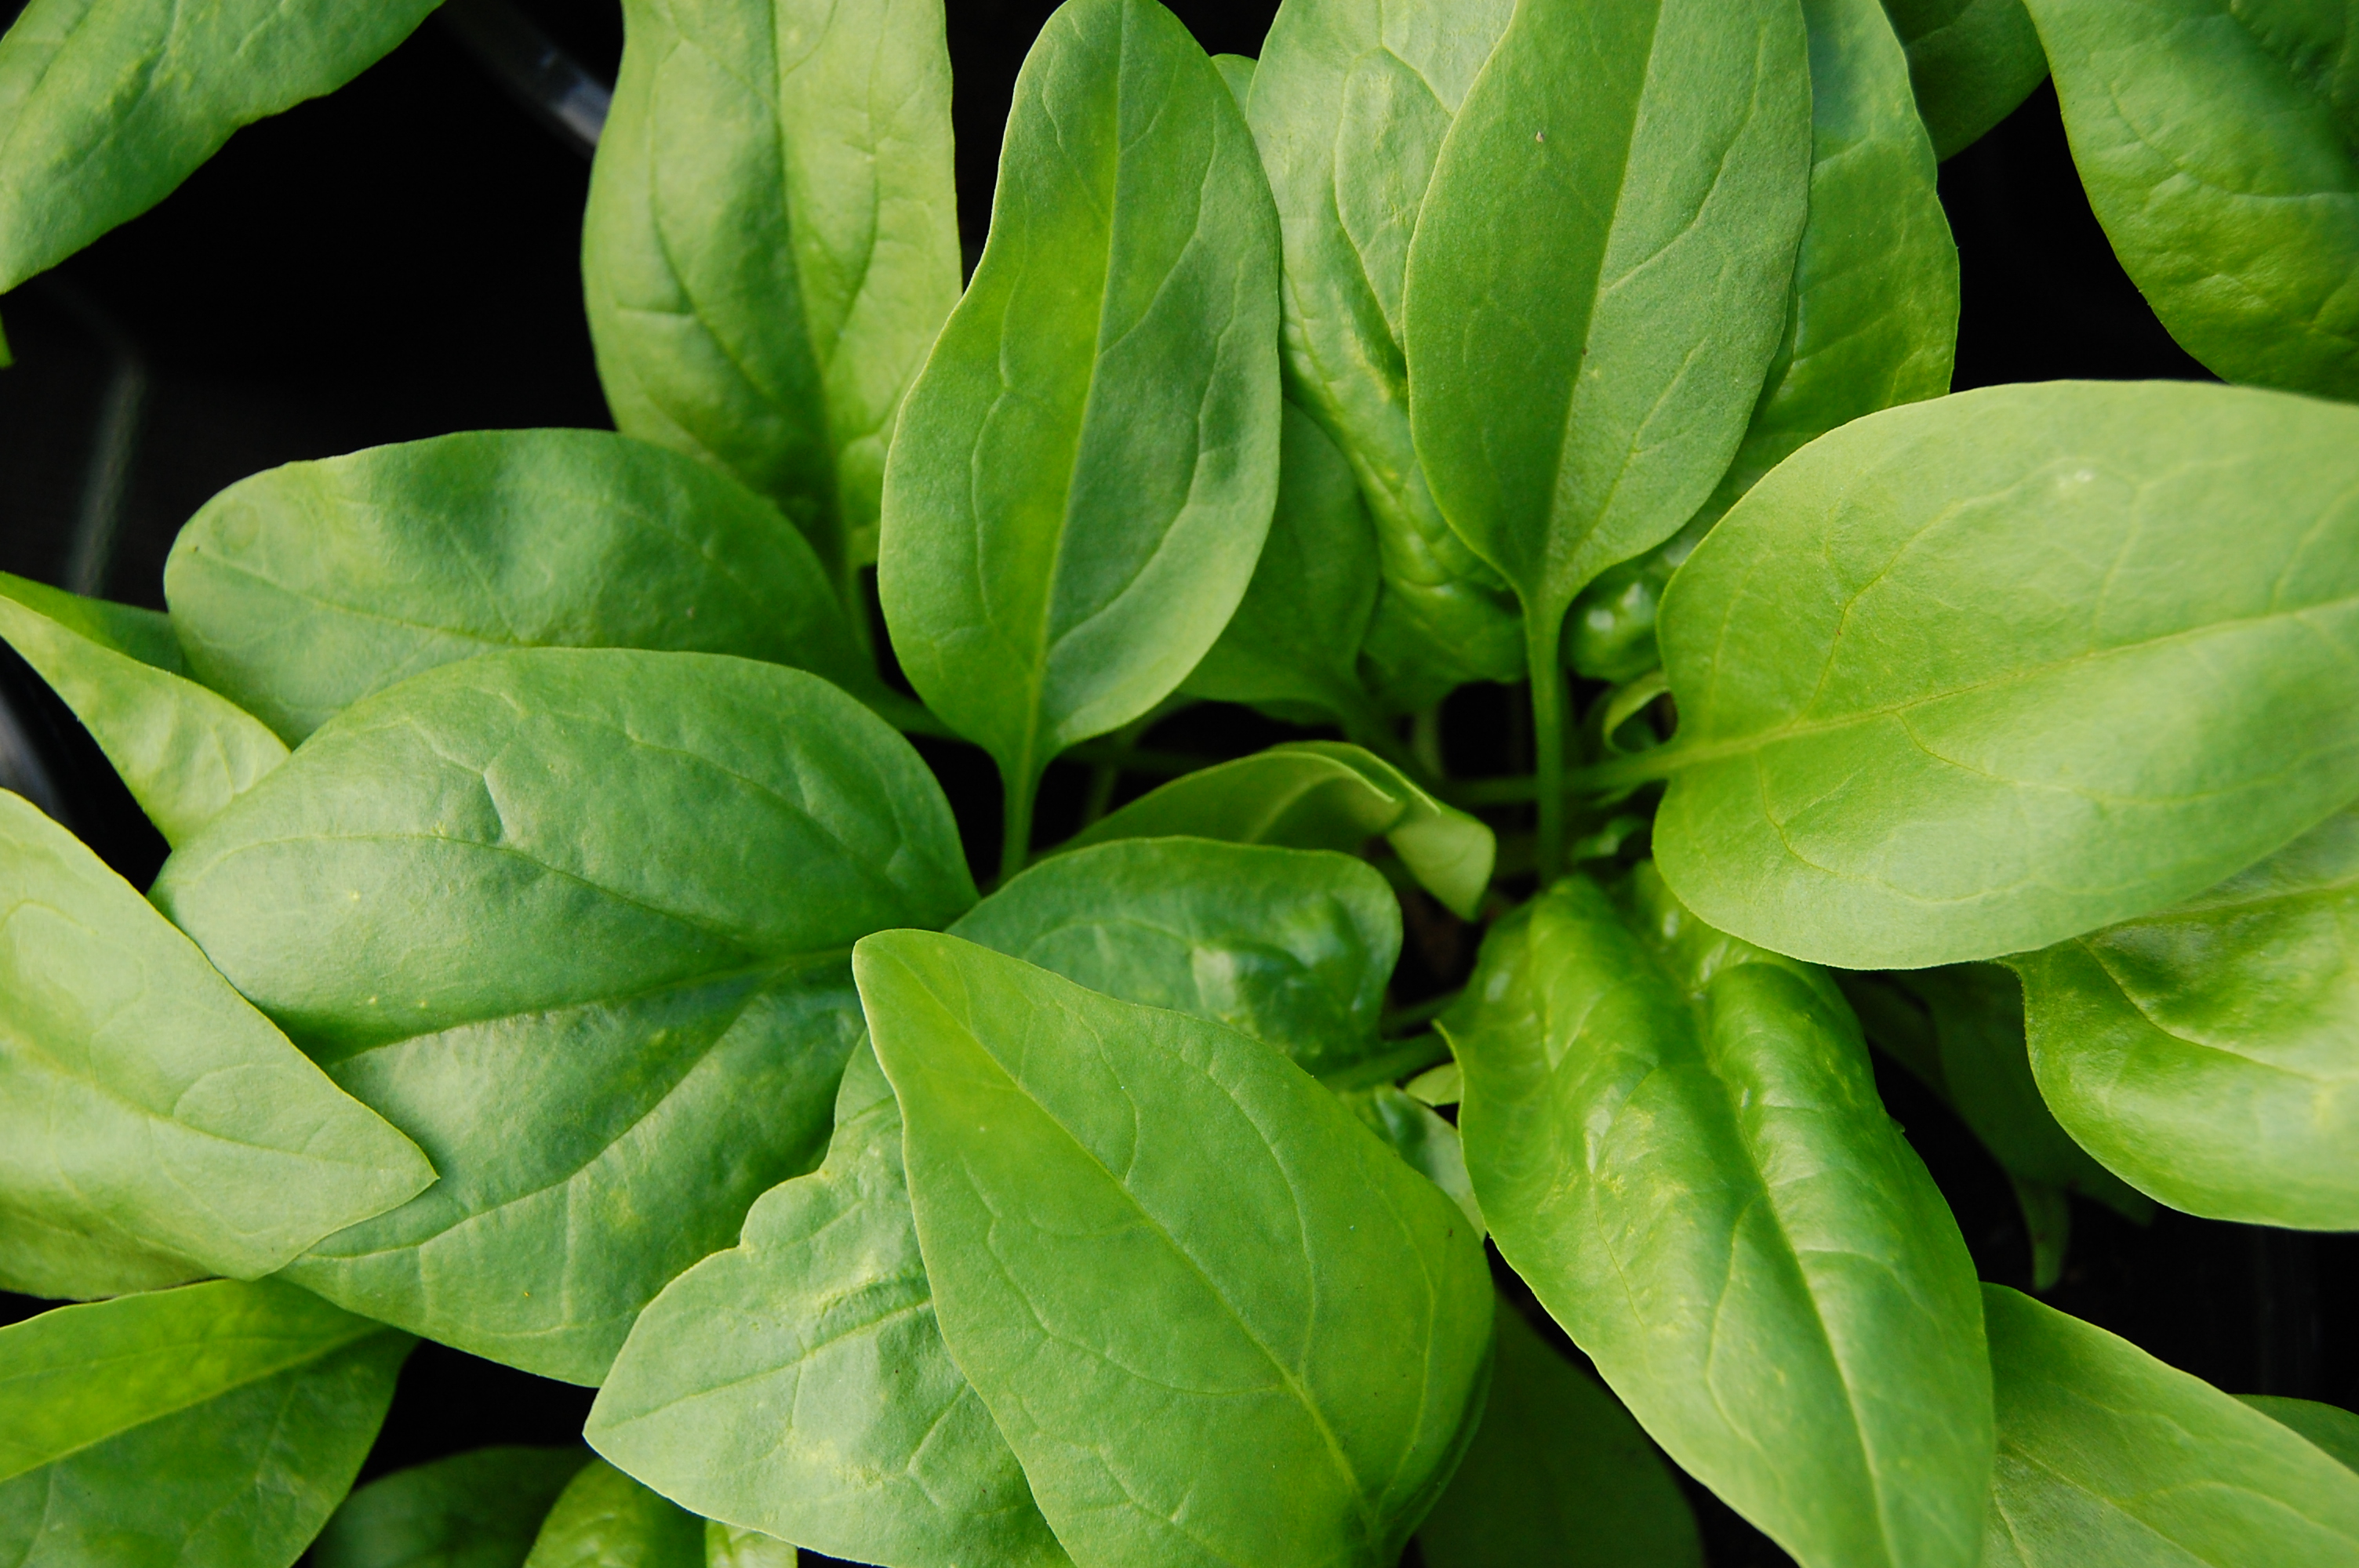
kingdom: Plantae
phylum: Tracheophyta
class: Magnoliopsida
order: Caryophyllales
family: Amaranthaceae
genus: Spinacia
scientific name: Spinacia oleracea
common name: Spinach
